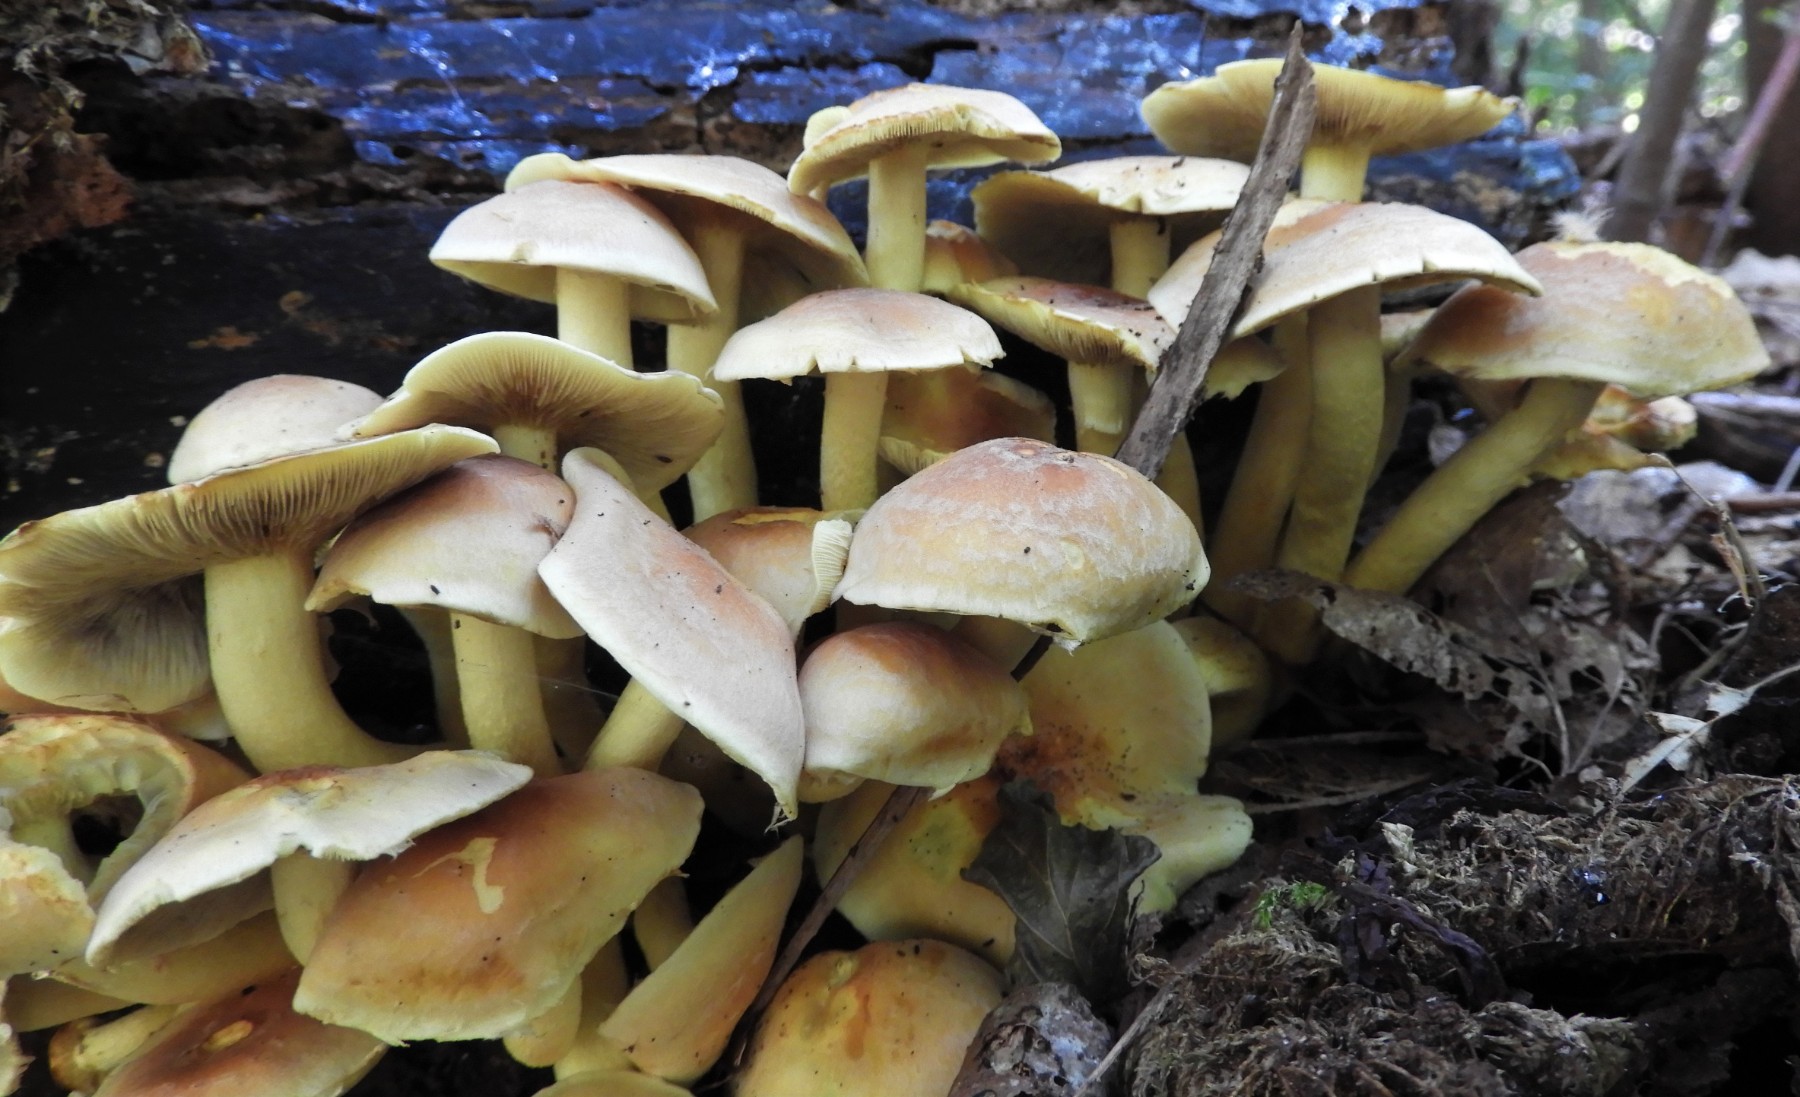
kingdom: Fungi
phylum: Basidiomycota
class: Agaricomycetes
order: Agaricales
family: Strophariaceae
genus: Hypholoma
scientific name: Hypholoma fasciculare
